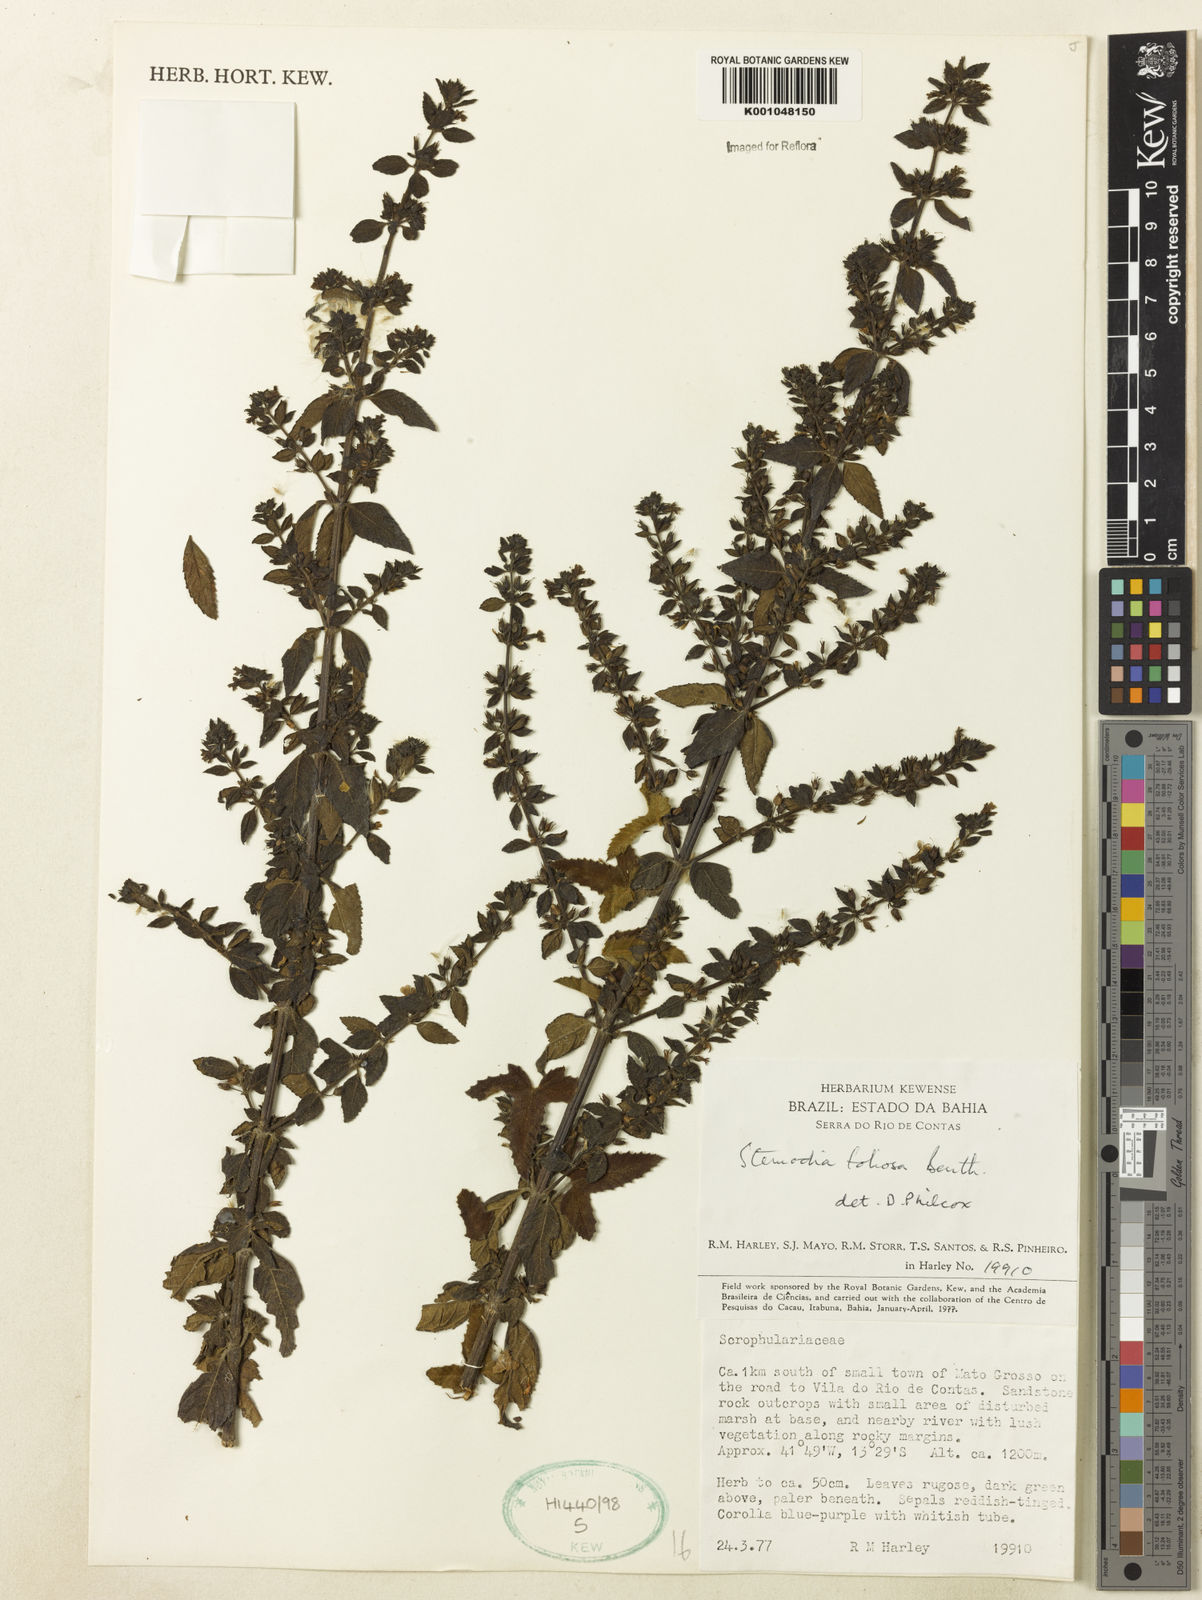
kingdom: Plantae
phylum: Tracheophyta
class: Magnoliopsida
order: Lamiales
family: Plantaginaceae
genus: Stemodia
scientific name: Stemodia foliosa
